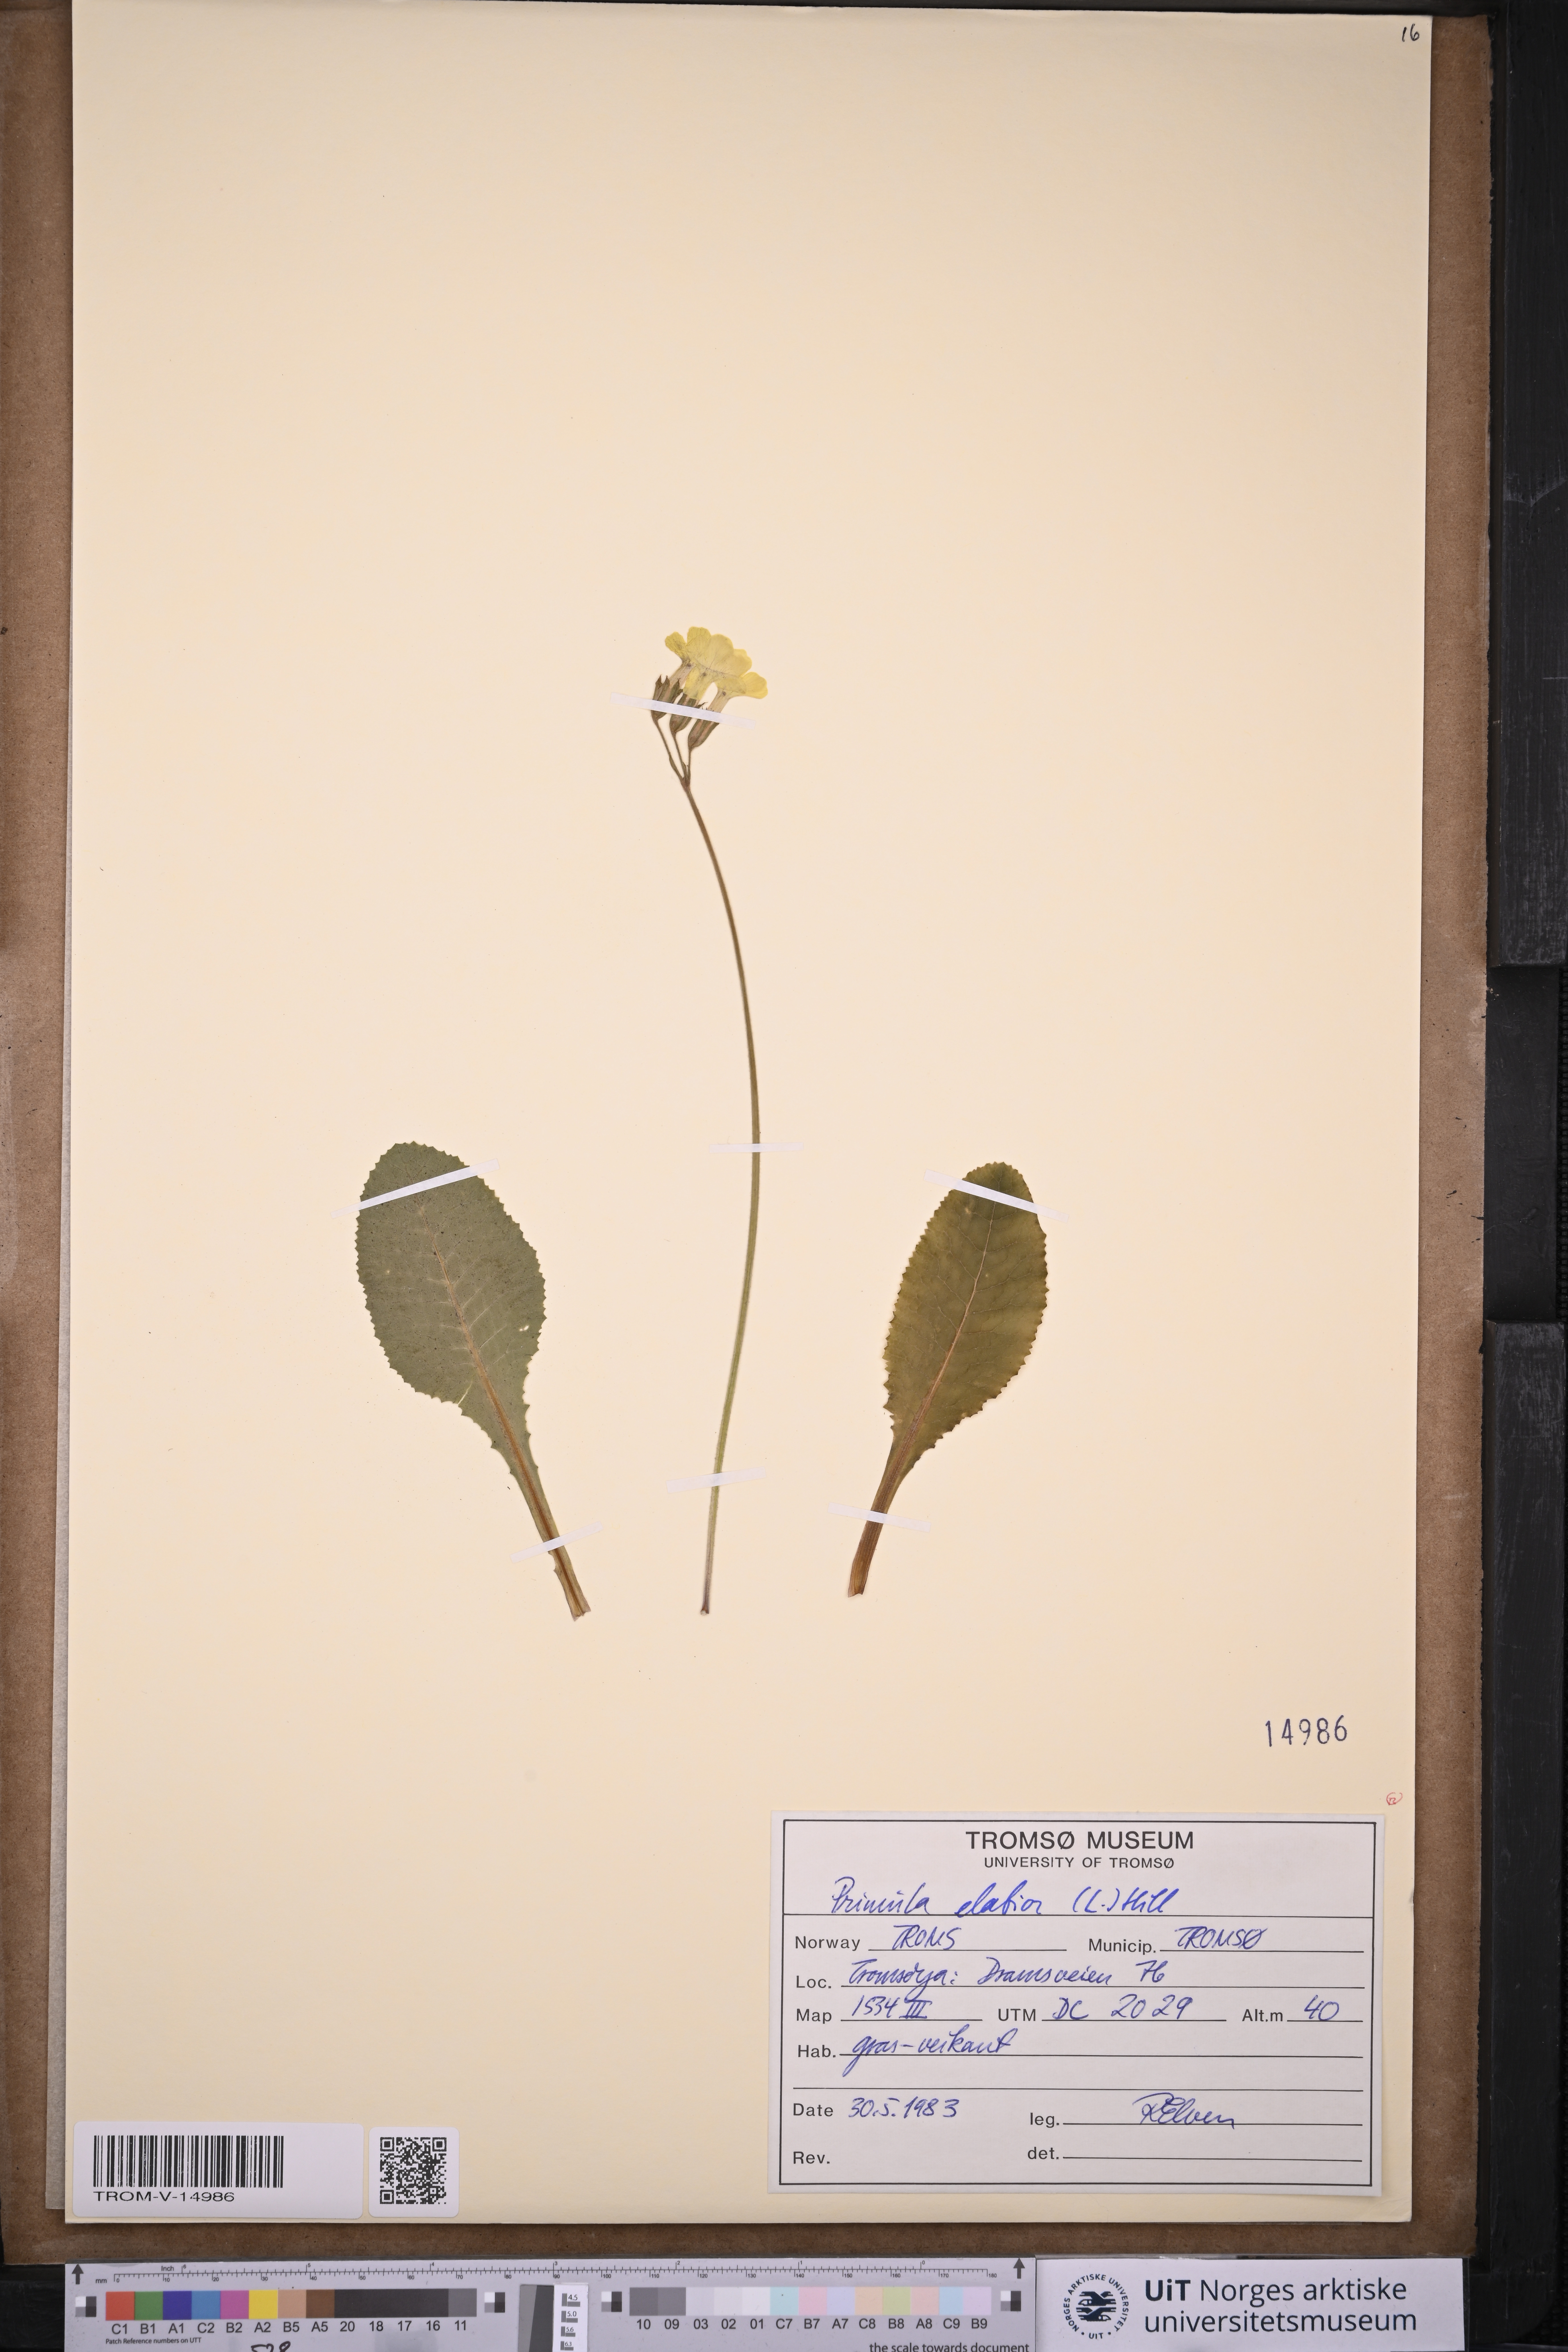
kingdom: Plantae
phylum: Tracheophyta
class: Magnoliopsida
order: Ericales
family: Primulaceae
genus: Primula
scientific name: Primula elatior
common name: Oxlip
